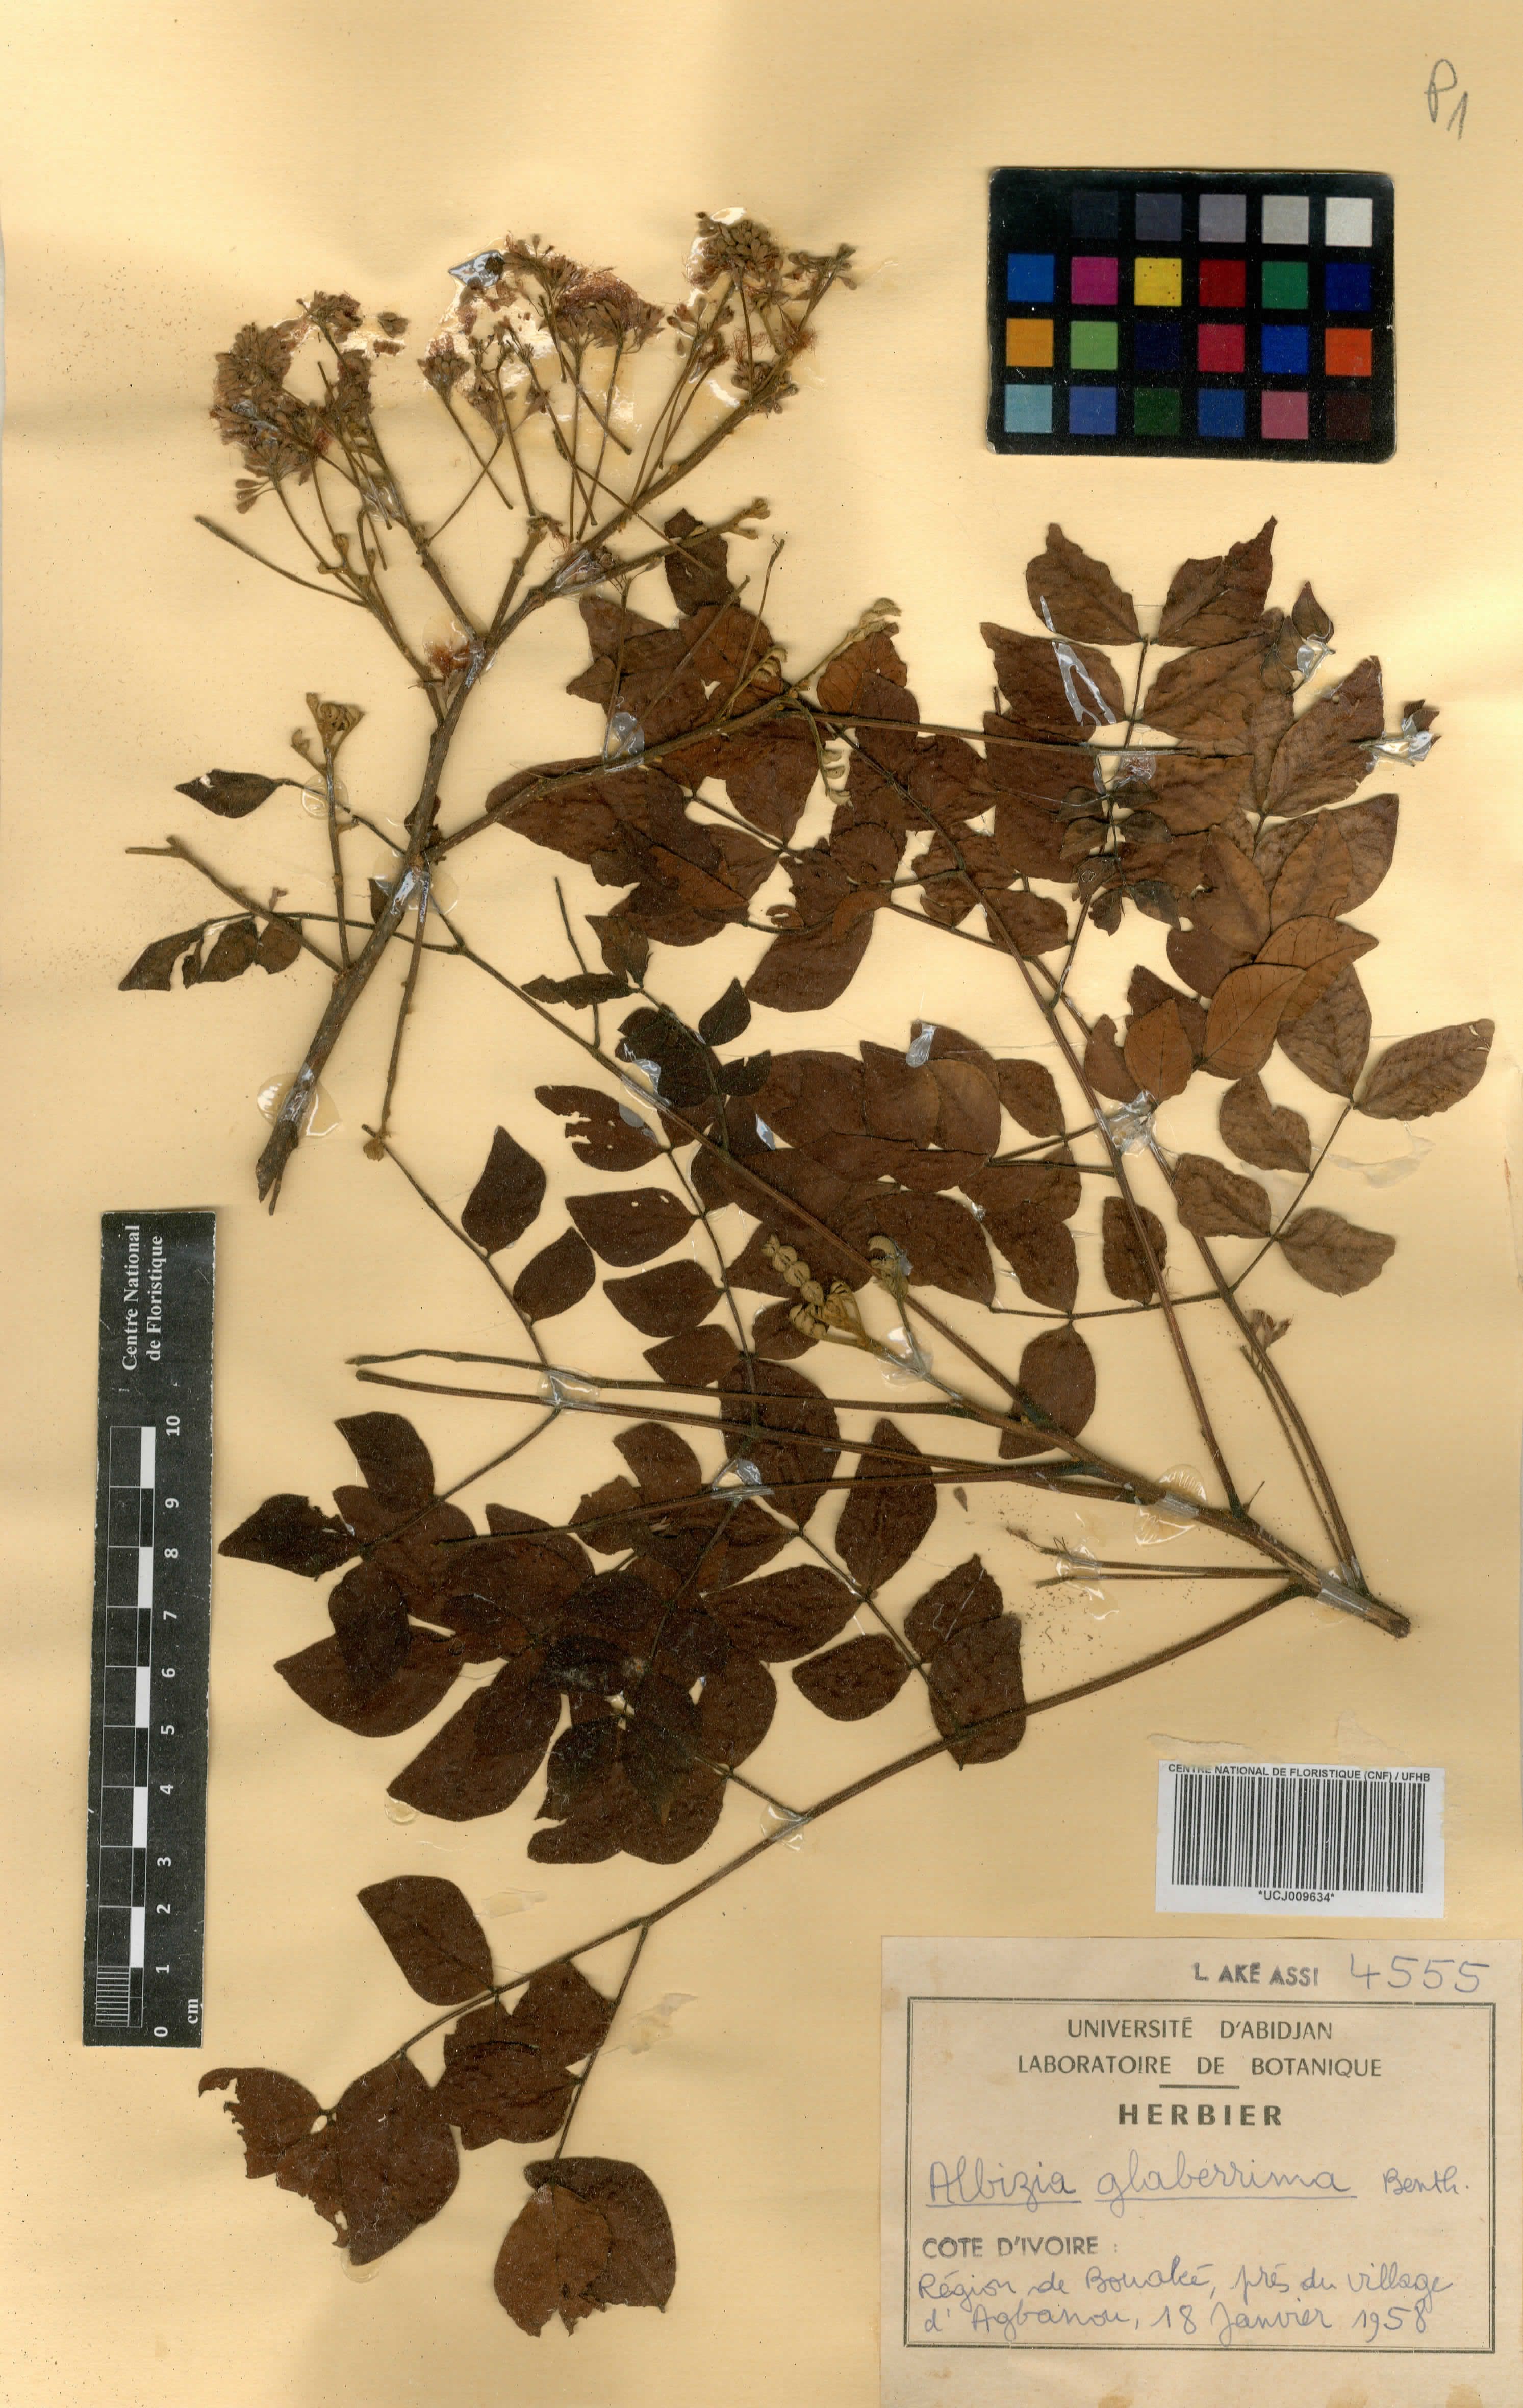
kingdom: Plantae
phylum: Tracheophyta
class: Magnoliopsida
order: Fabales
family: Fabaceae
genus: Albizia
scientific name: Albizia glaberrima
